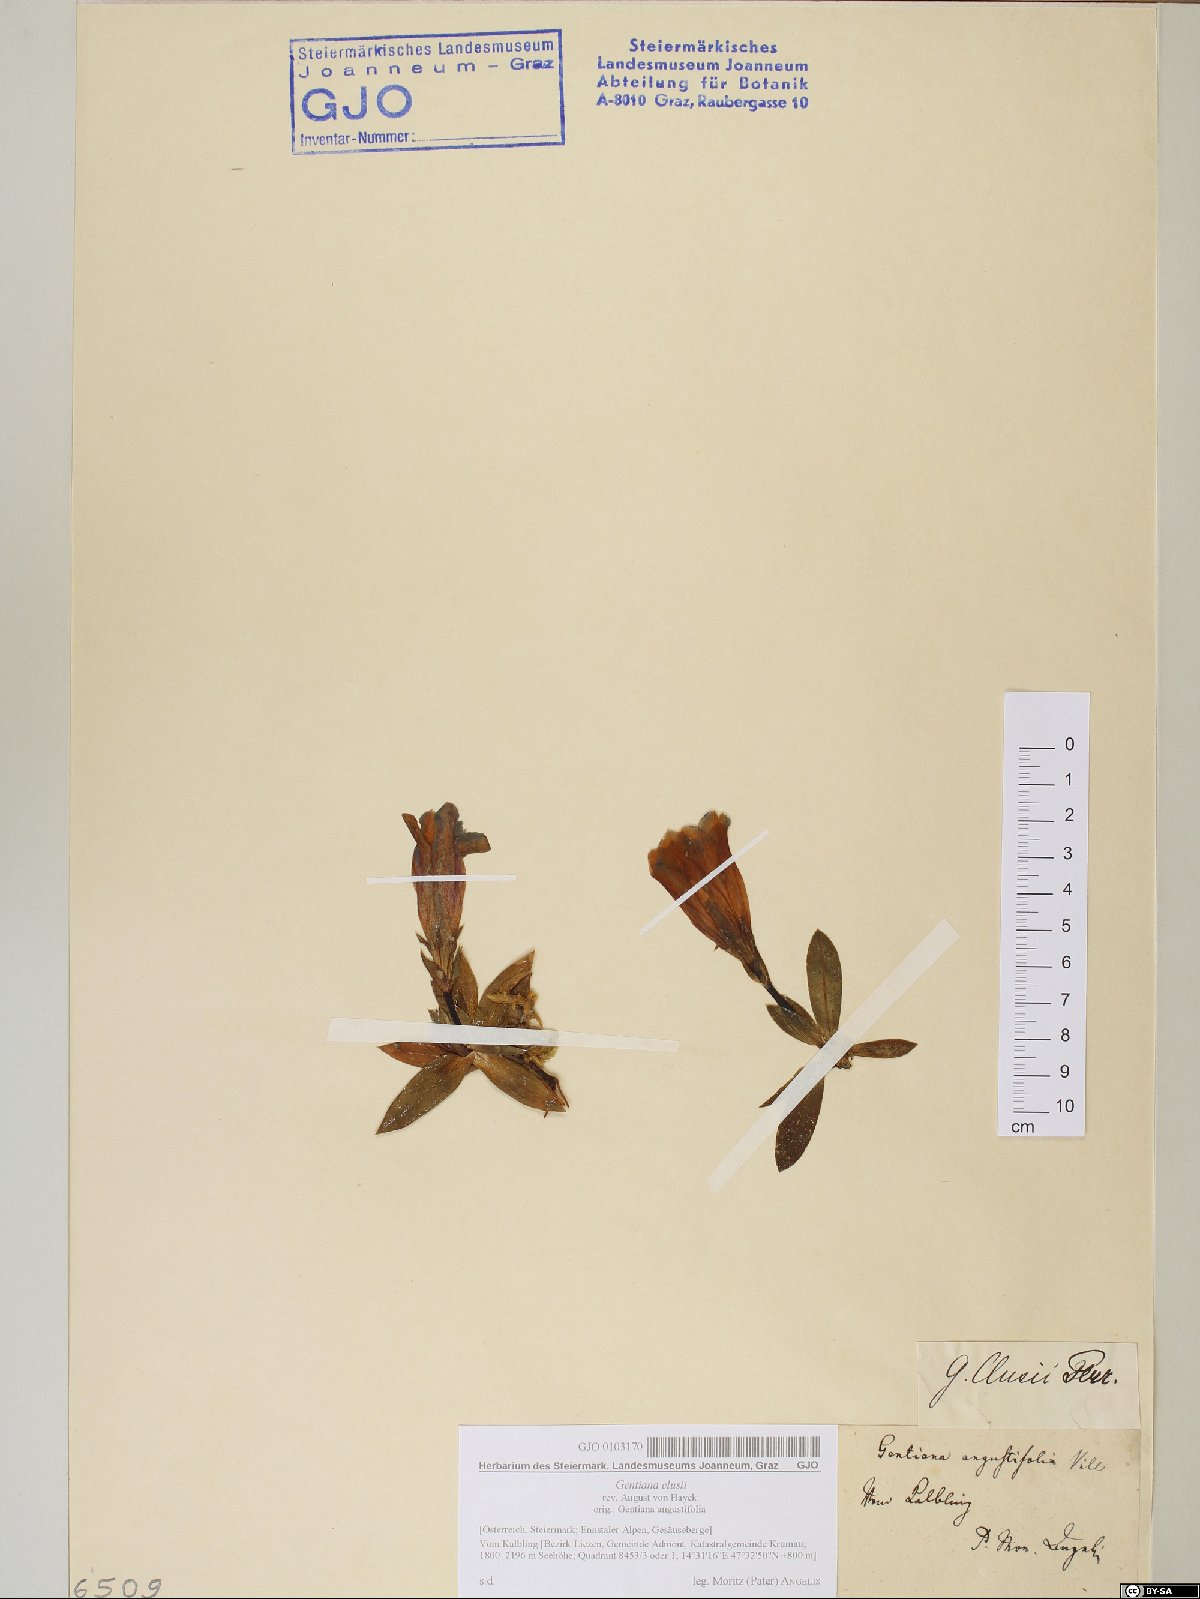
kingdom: Plantae
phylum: Tracheophyta
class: Magnoliopsida
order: Gentianales
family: Gentianaceae
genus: Gentiana
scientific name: Gentiana clusii
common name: Trumpet gentian
